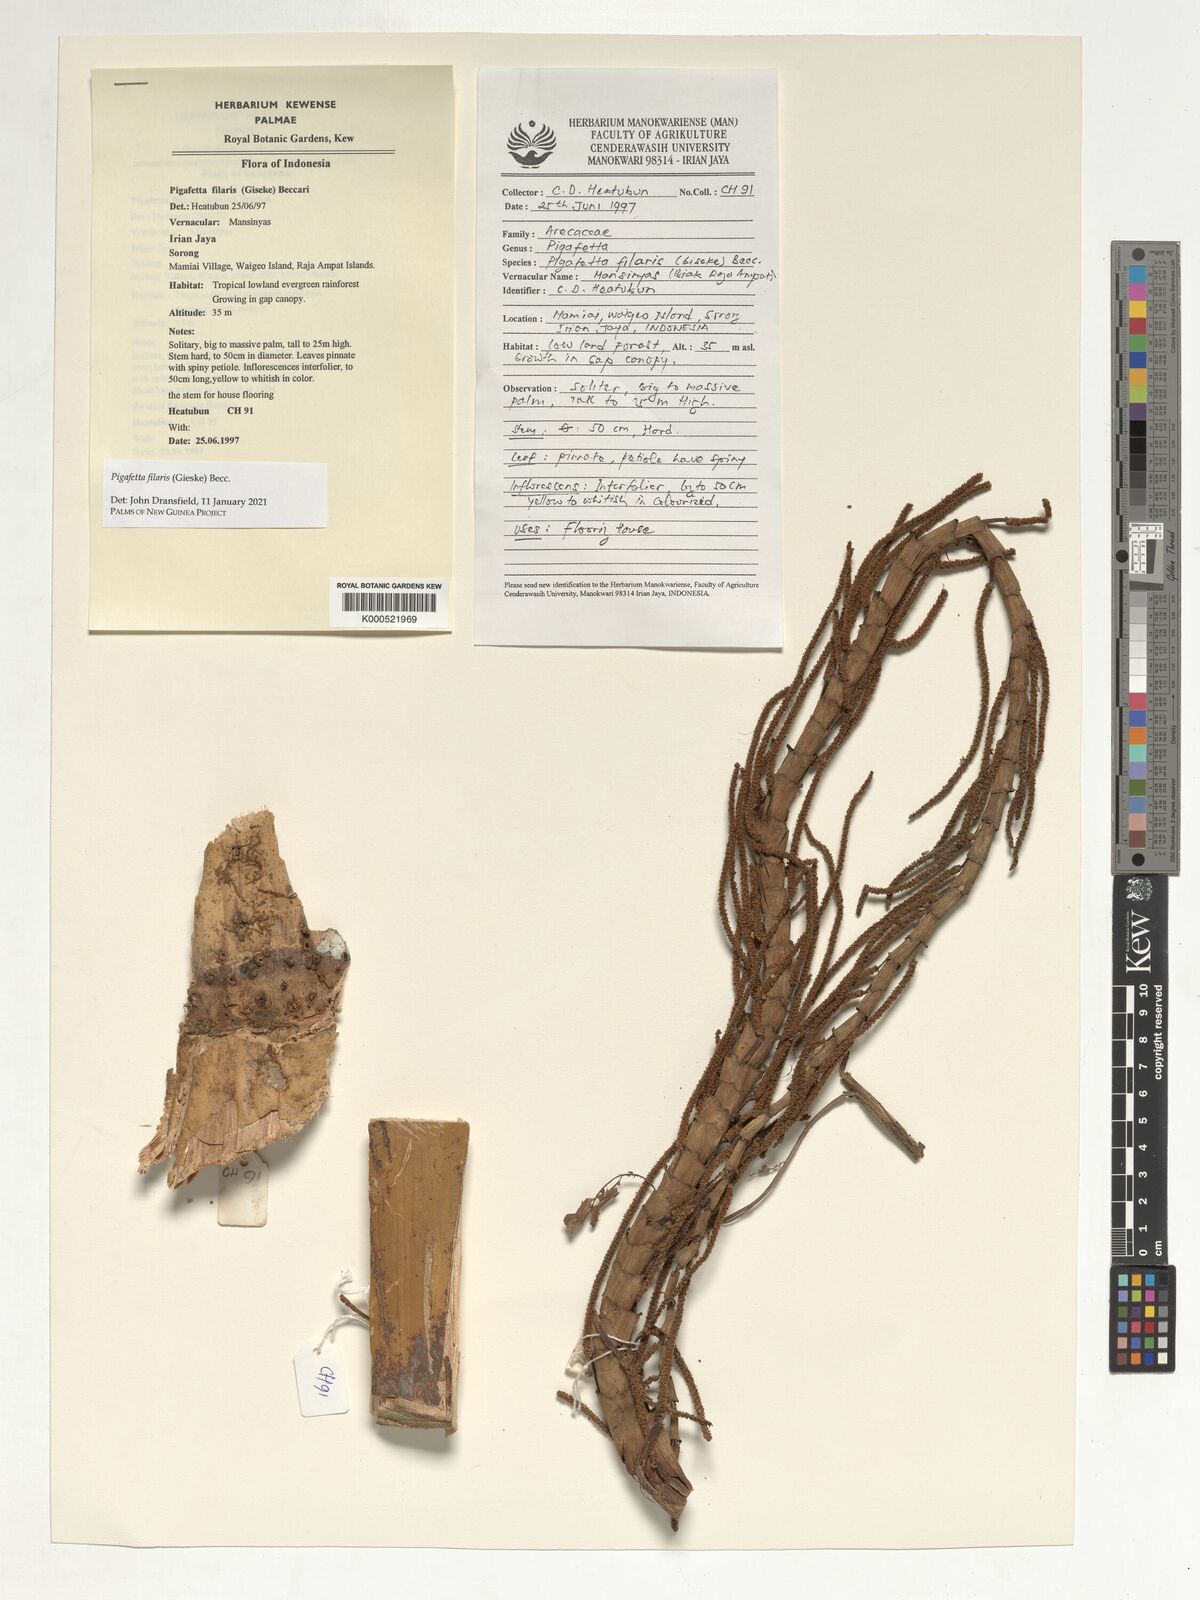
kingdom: Plantae
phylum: Tracheophyta
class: Liliopsida
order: Arecales
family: Arecaceae
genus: Pigafetta
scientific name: Pigafetta filaris
